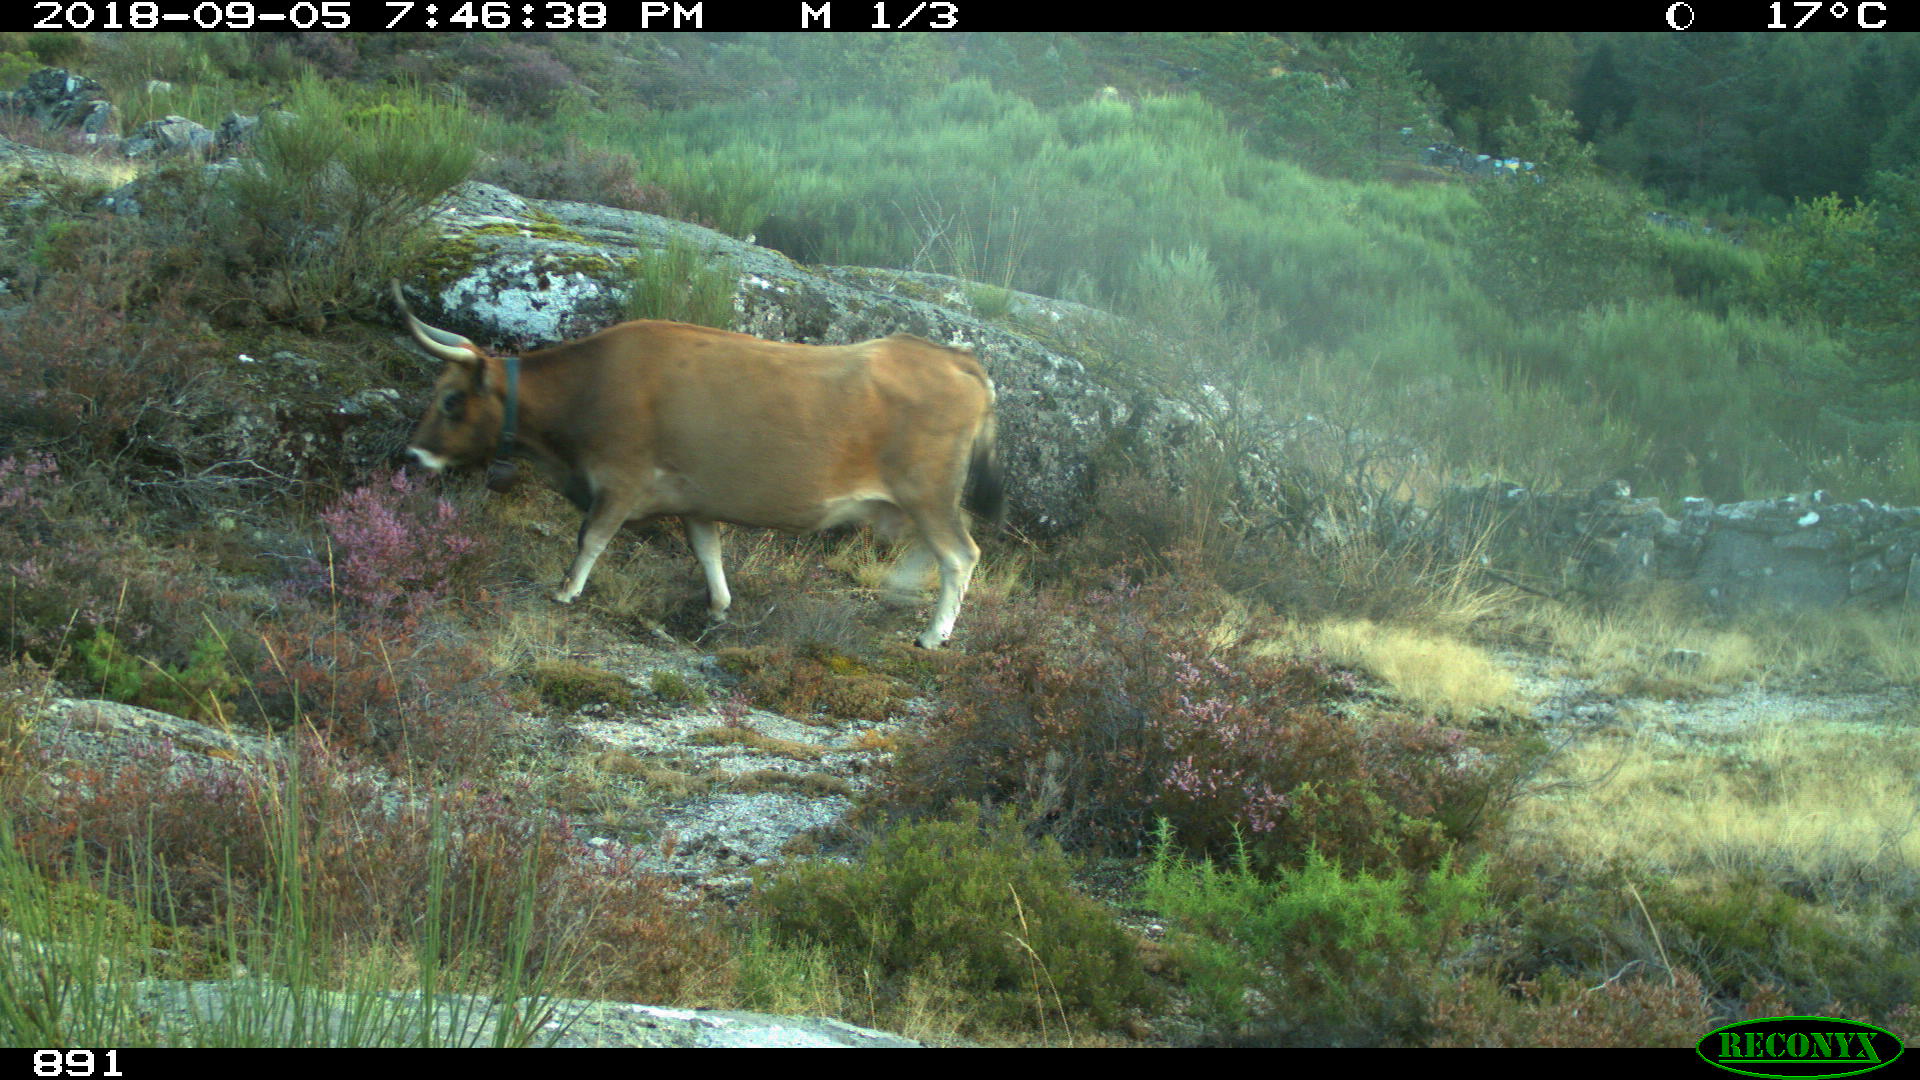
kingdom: Animalia
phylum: Chordata
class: Mammalia
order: Artiodactyla
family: Bovidae
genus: Bos
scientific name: Bos taurus
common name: Domesticated cattle
